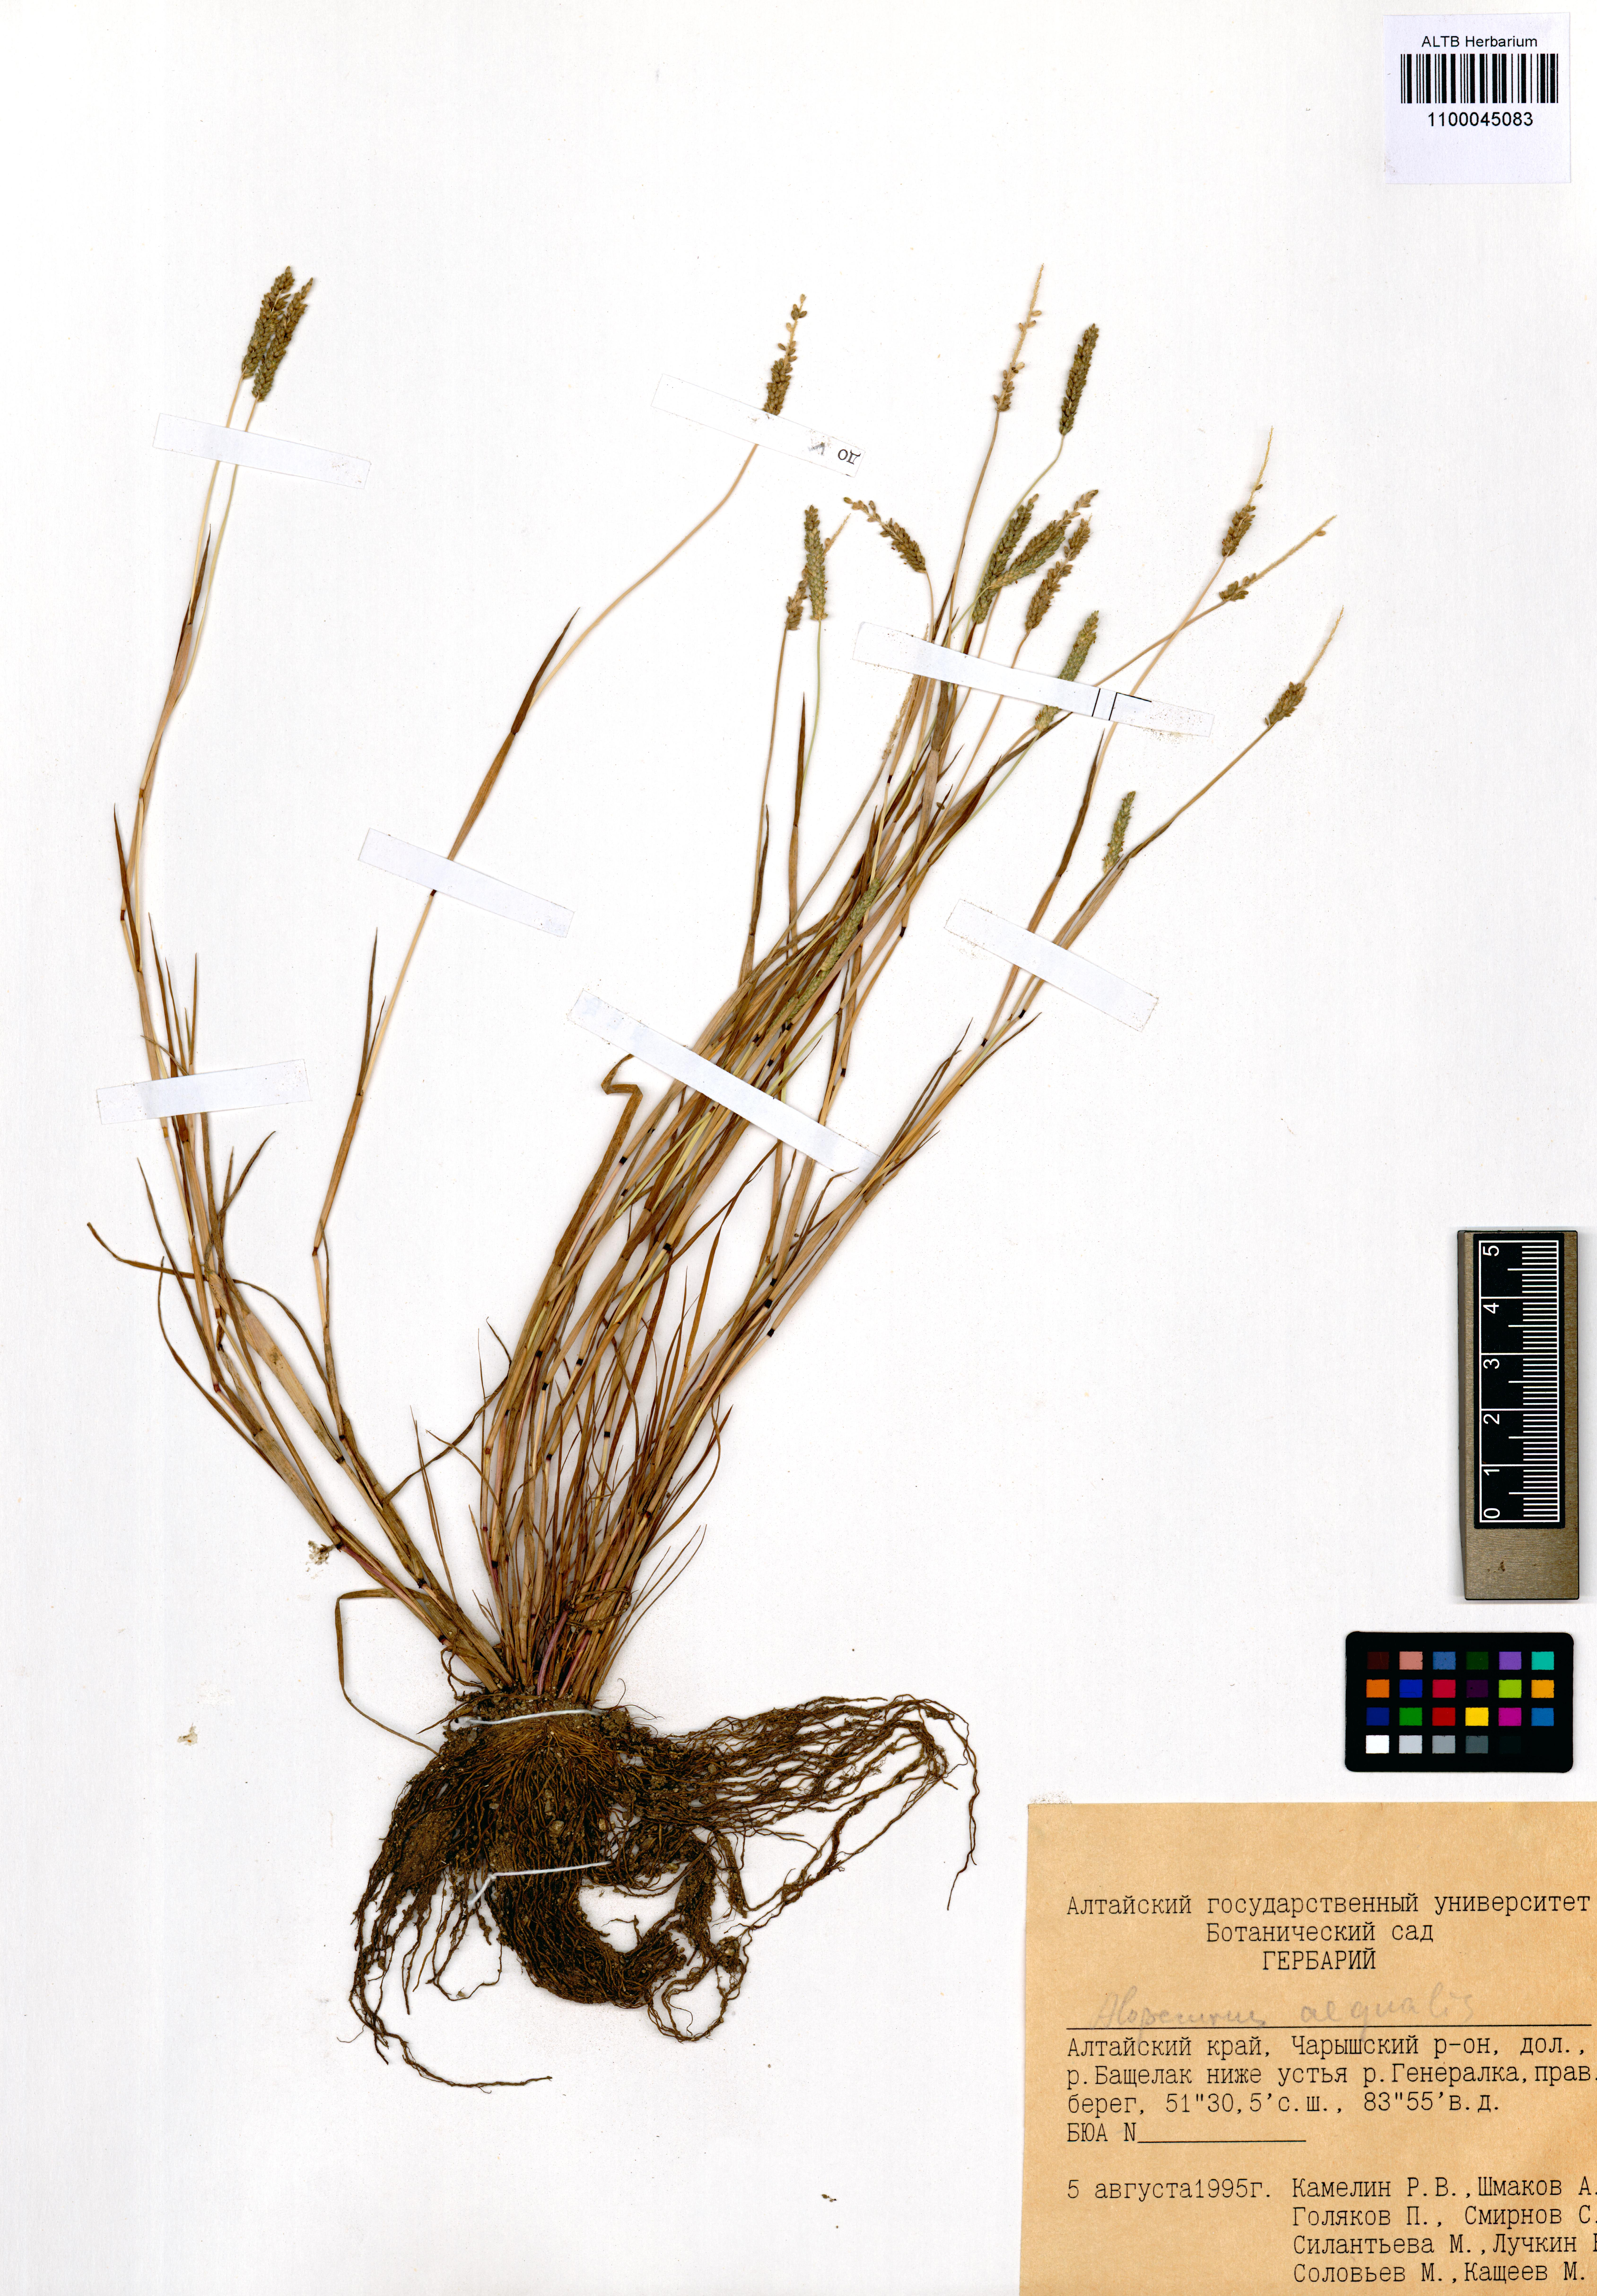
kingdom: Plantae
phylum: Tracheophyta
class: Liliopsida
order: Poales
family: Poaceae
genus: Alopecurus
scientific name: Alopecurus aequalis
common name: Orange foxtail
